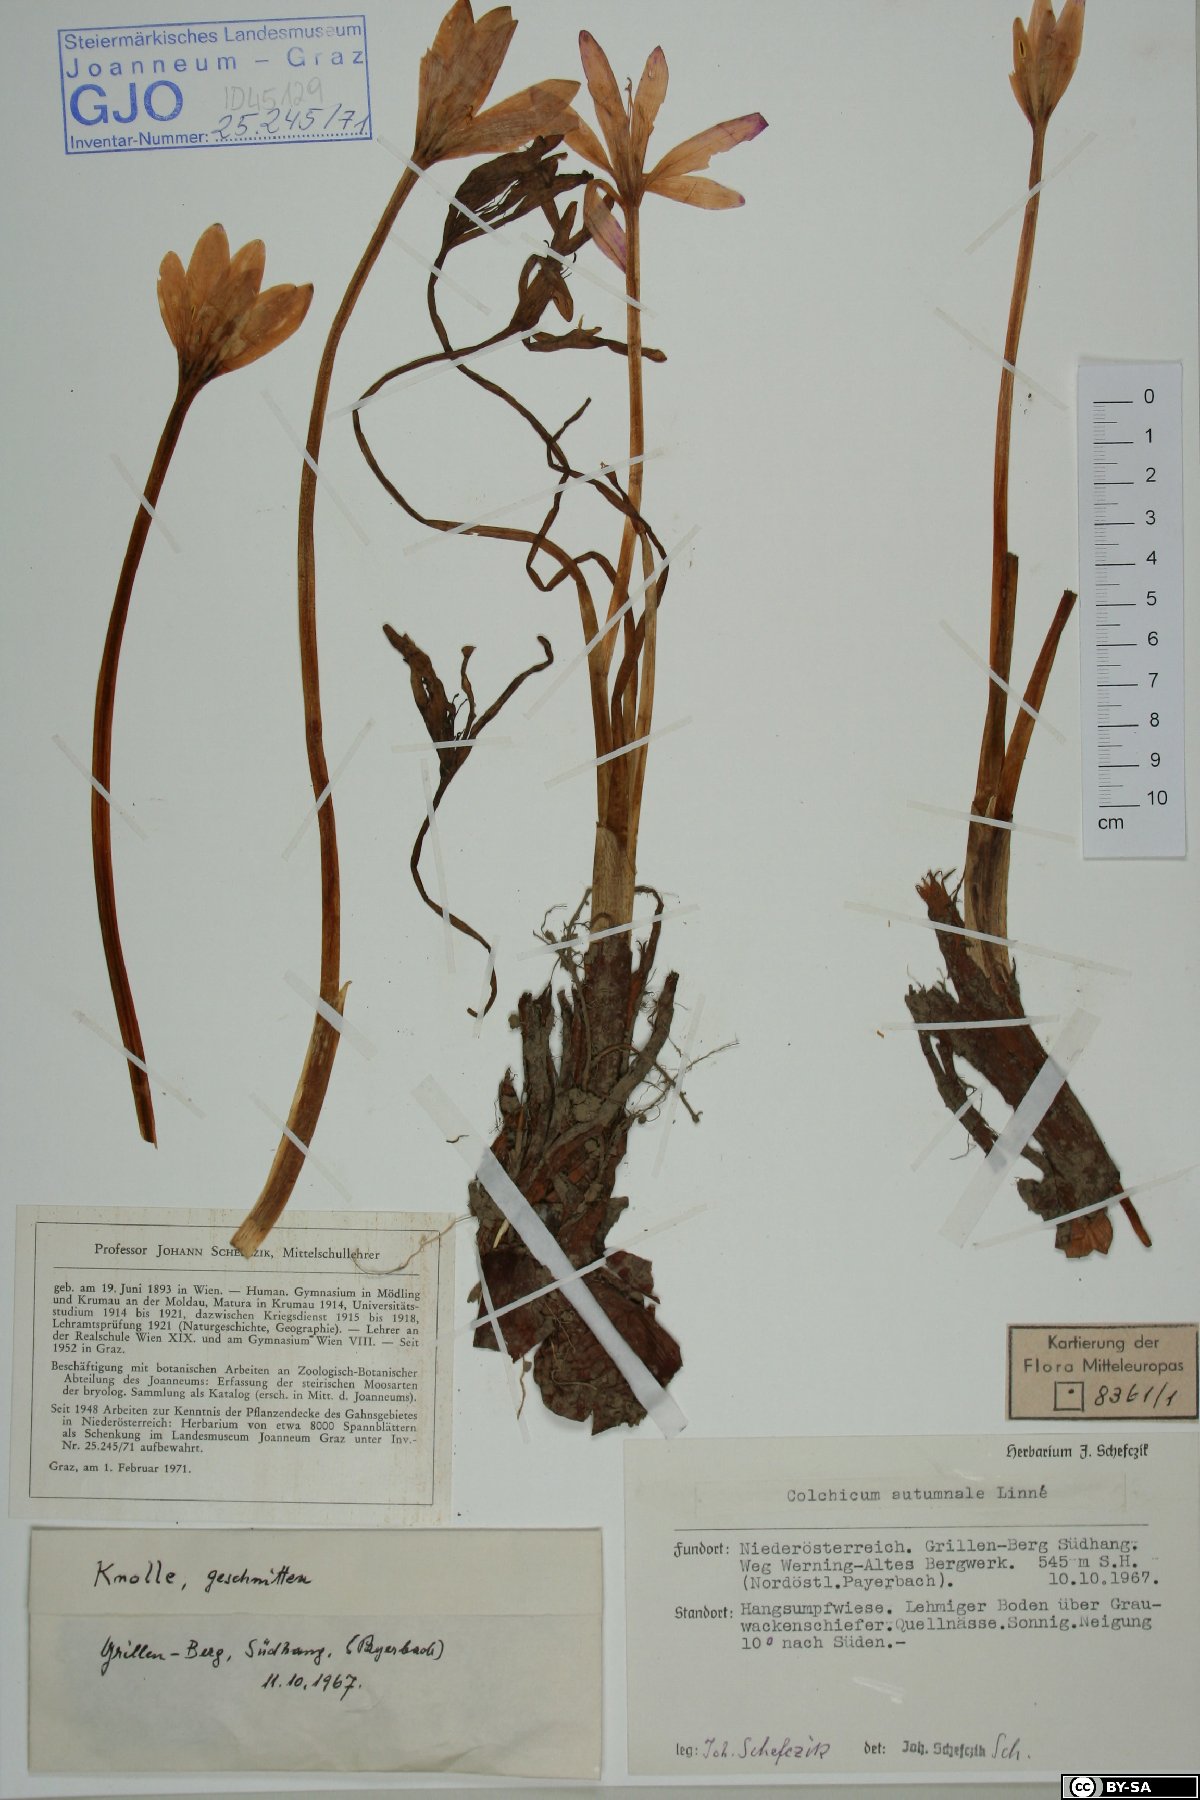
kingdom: Plantae
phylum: Tracheophyta
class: Liliopsida
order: Liliales
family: Colchicaceae
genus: Colchicum
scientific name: Colchicum autumnale
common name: Autumn crocus
